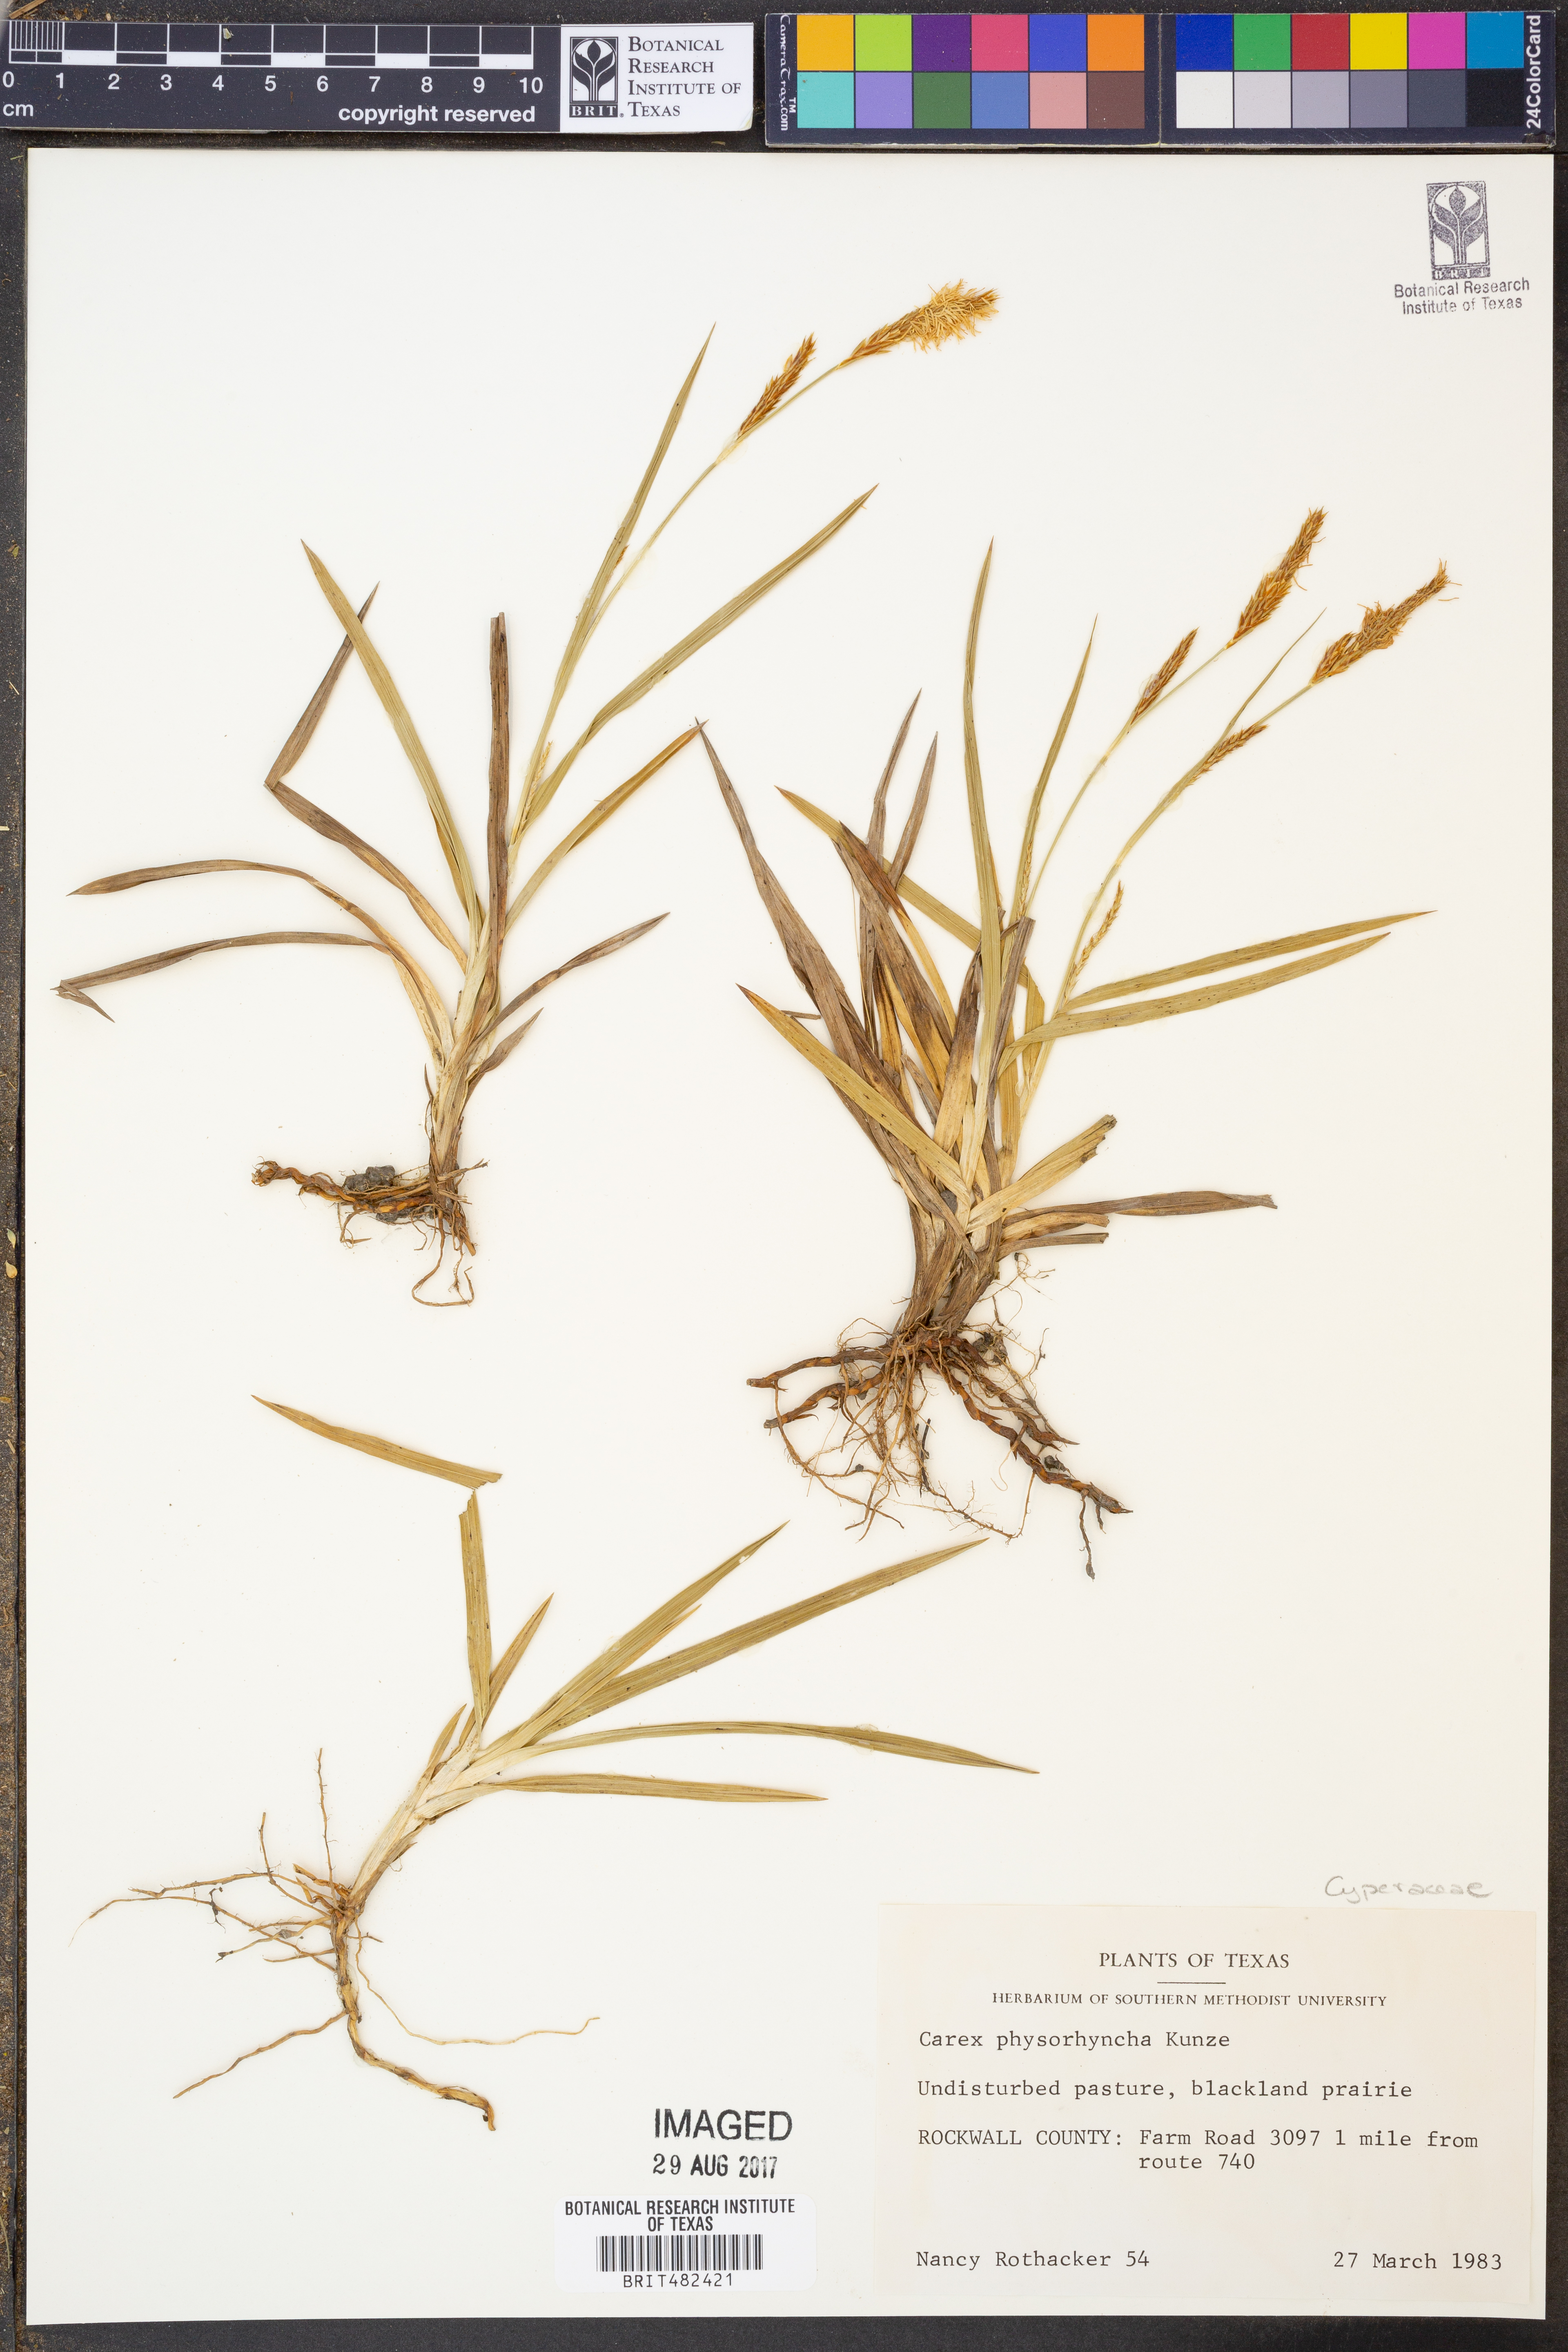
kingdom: Plantae
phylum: Tracheophyta
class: Liliopsida
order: Poales
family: Cyperaceae
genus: Carex
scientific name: Carex albicans
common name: Bellow-beaked sedge
